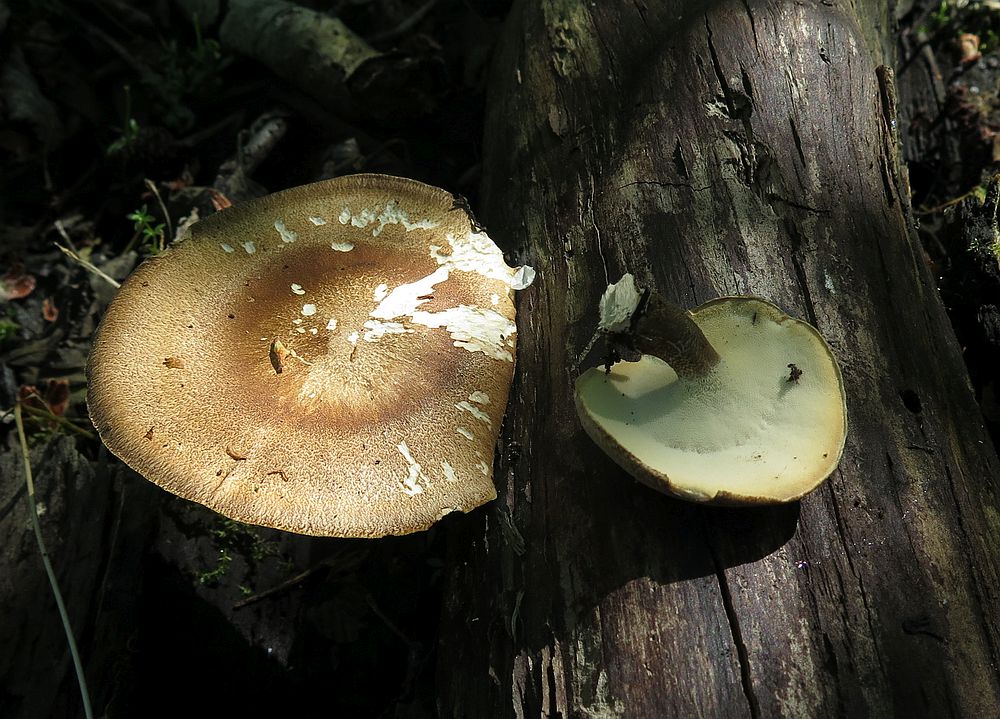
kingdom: Fungi
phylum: Basidiomycota
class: Agaricomycetes
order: Polyporales
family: Polyporaceae
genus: Lentinus
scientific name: Lentinus substrictus
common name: forårs-stilkporesvamp
